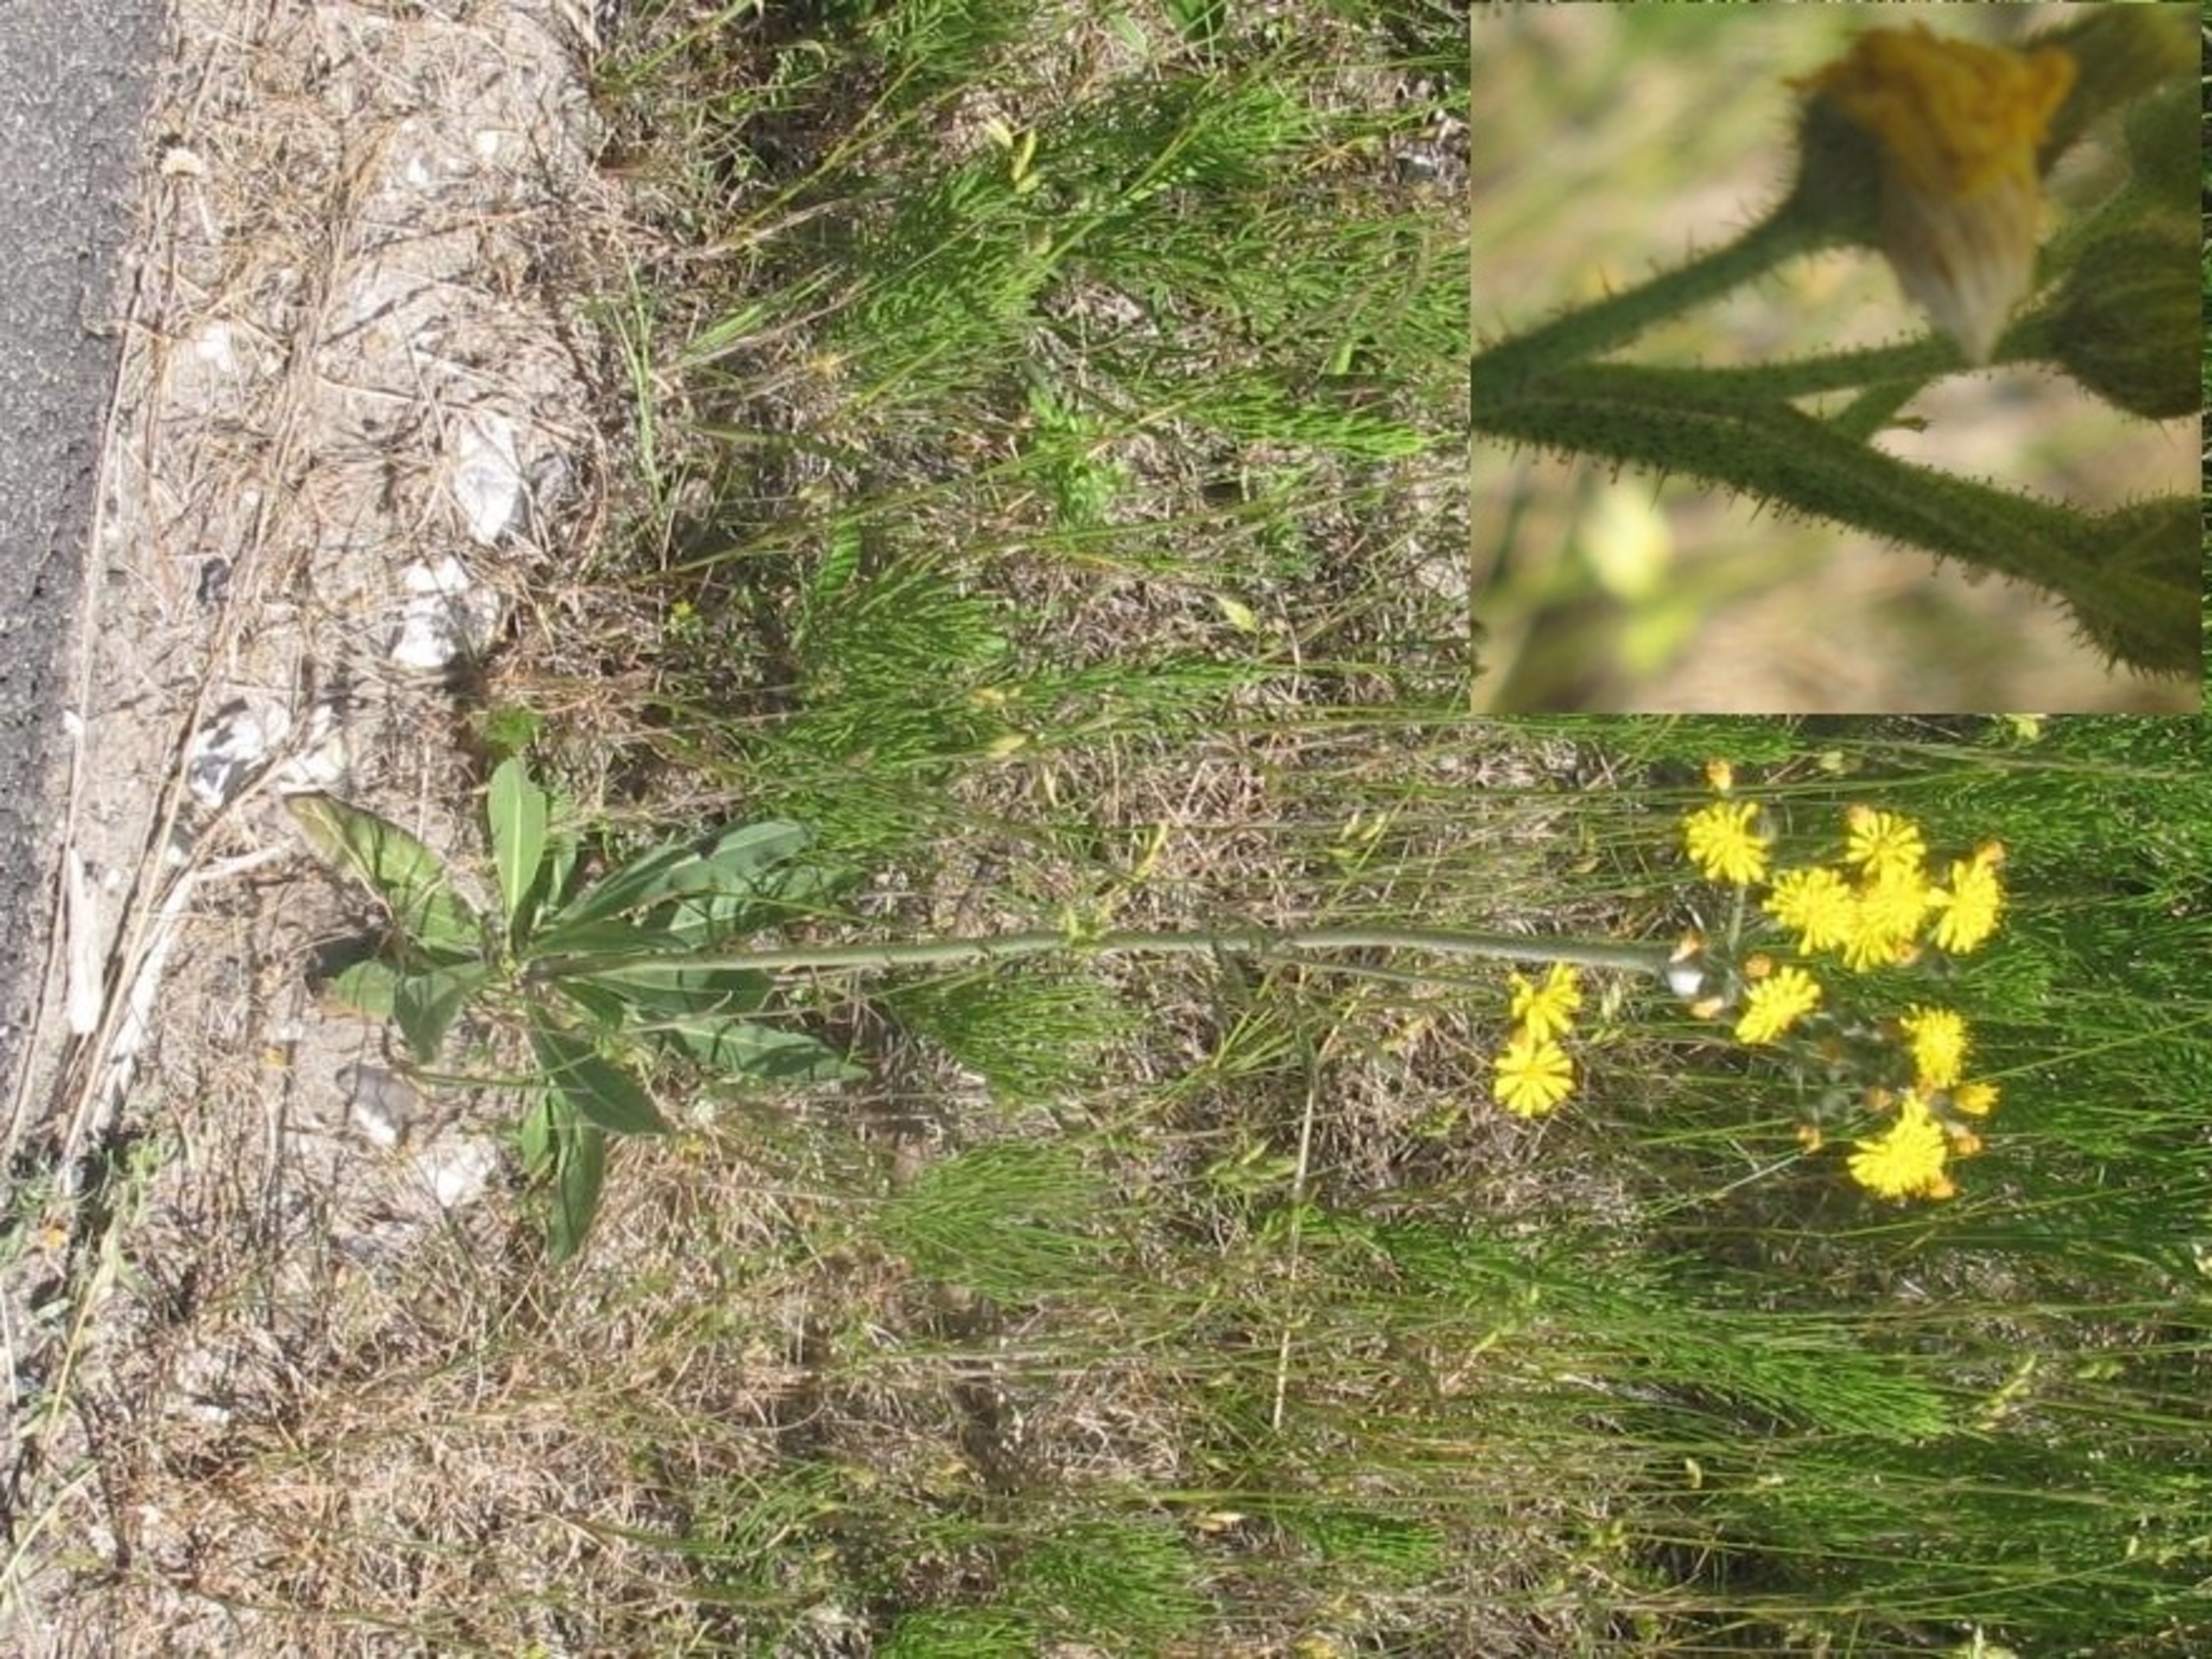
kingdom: Plantae
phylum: Tracheophyta
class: Magnoliopsida
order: Asterales
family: Asteraceae
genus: Pilosella
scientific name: Pilosella cymosa
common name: Enblomstret høgeurt
